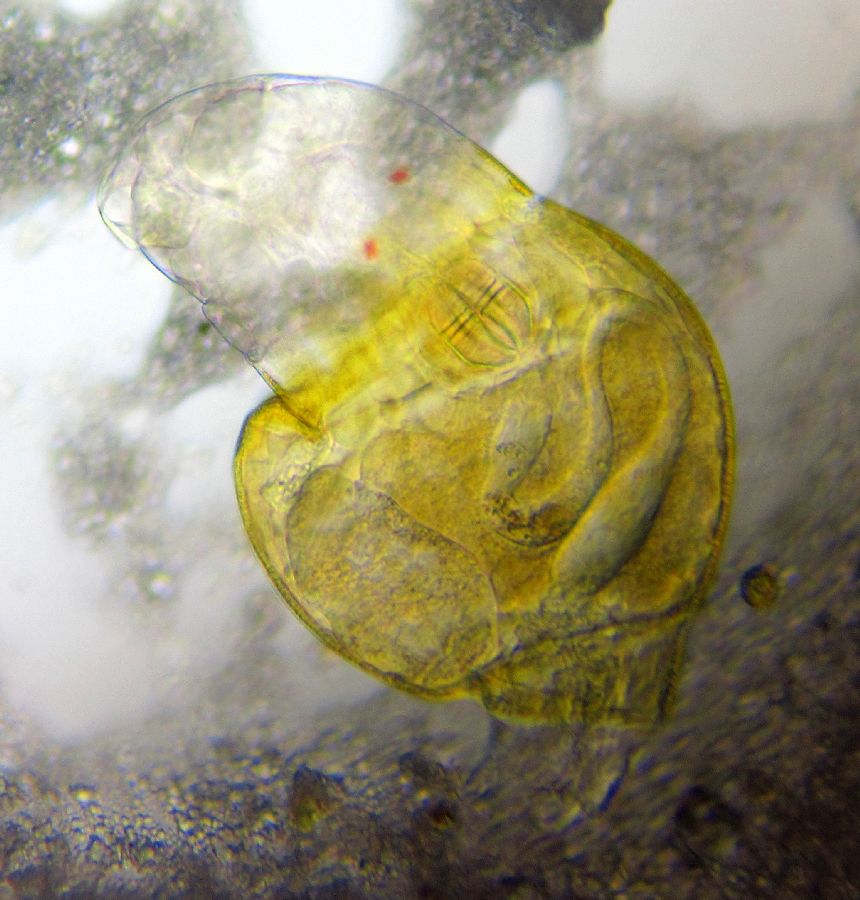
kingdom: Animalia
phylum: Rotifera
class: Eurotatoria
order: Bdelloidea
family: Philodinidae
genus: Rotaria
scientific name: Rotaria citrina
